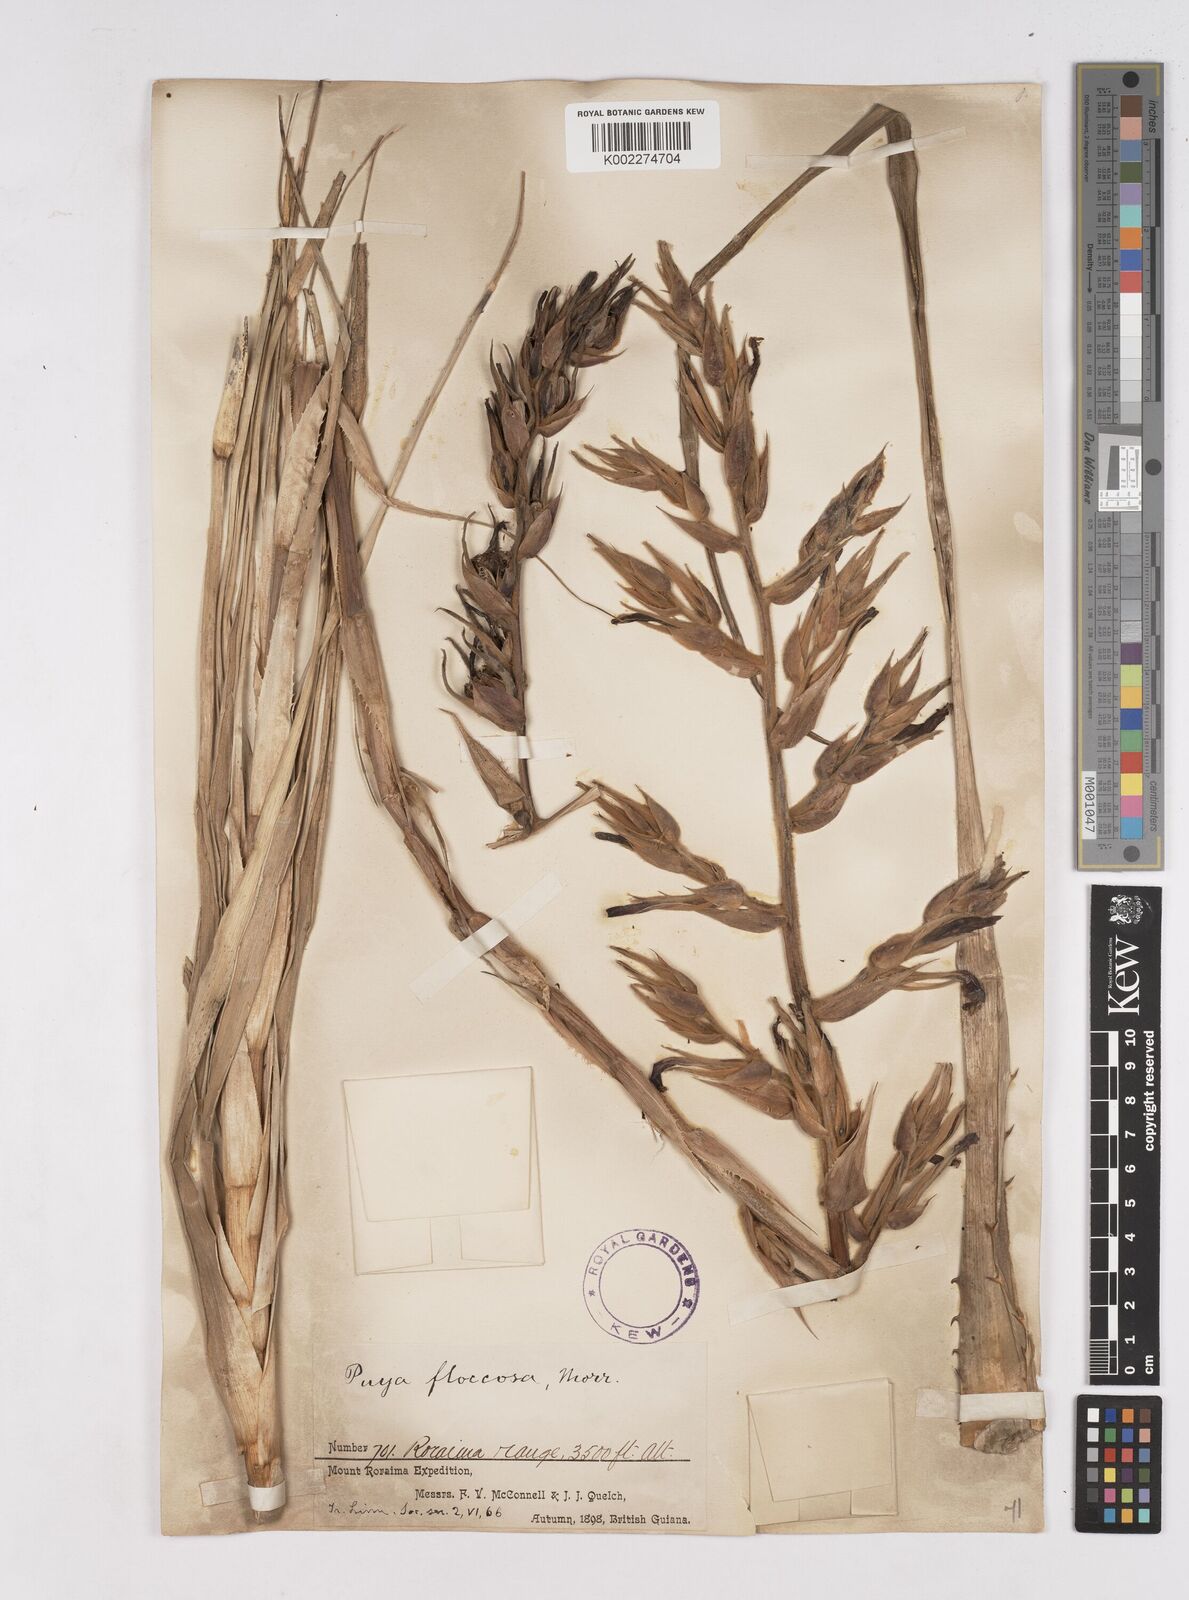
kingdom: Plantae
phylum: Tracheophyta
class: Liliopsida
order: Poales
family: Bromeliaceae
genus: Puya
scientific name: Puya floccosa
